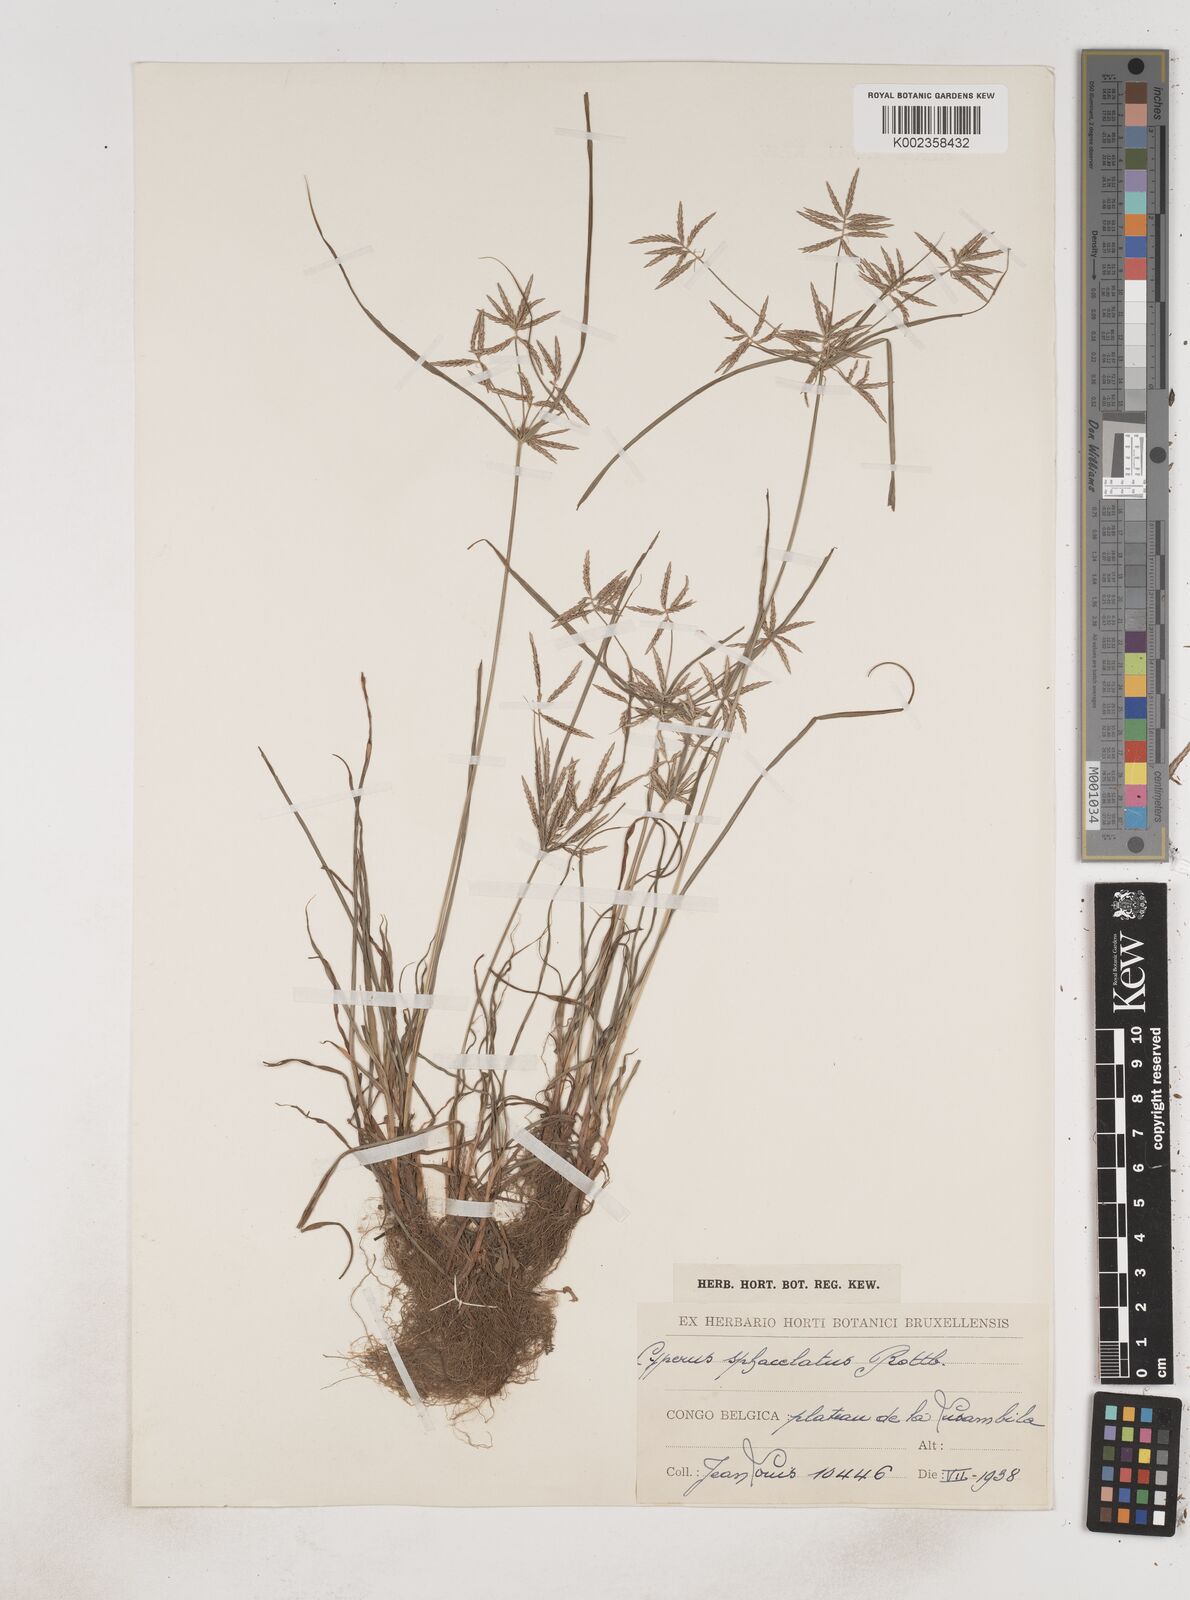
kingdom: Plantae
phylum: Tracheophyta
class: Liliopsida
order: Poales
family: Cyperaceae
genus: Cyperus
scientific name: Cyperus sphacelatus
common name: Roadside flatsedge
